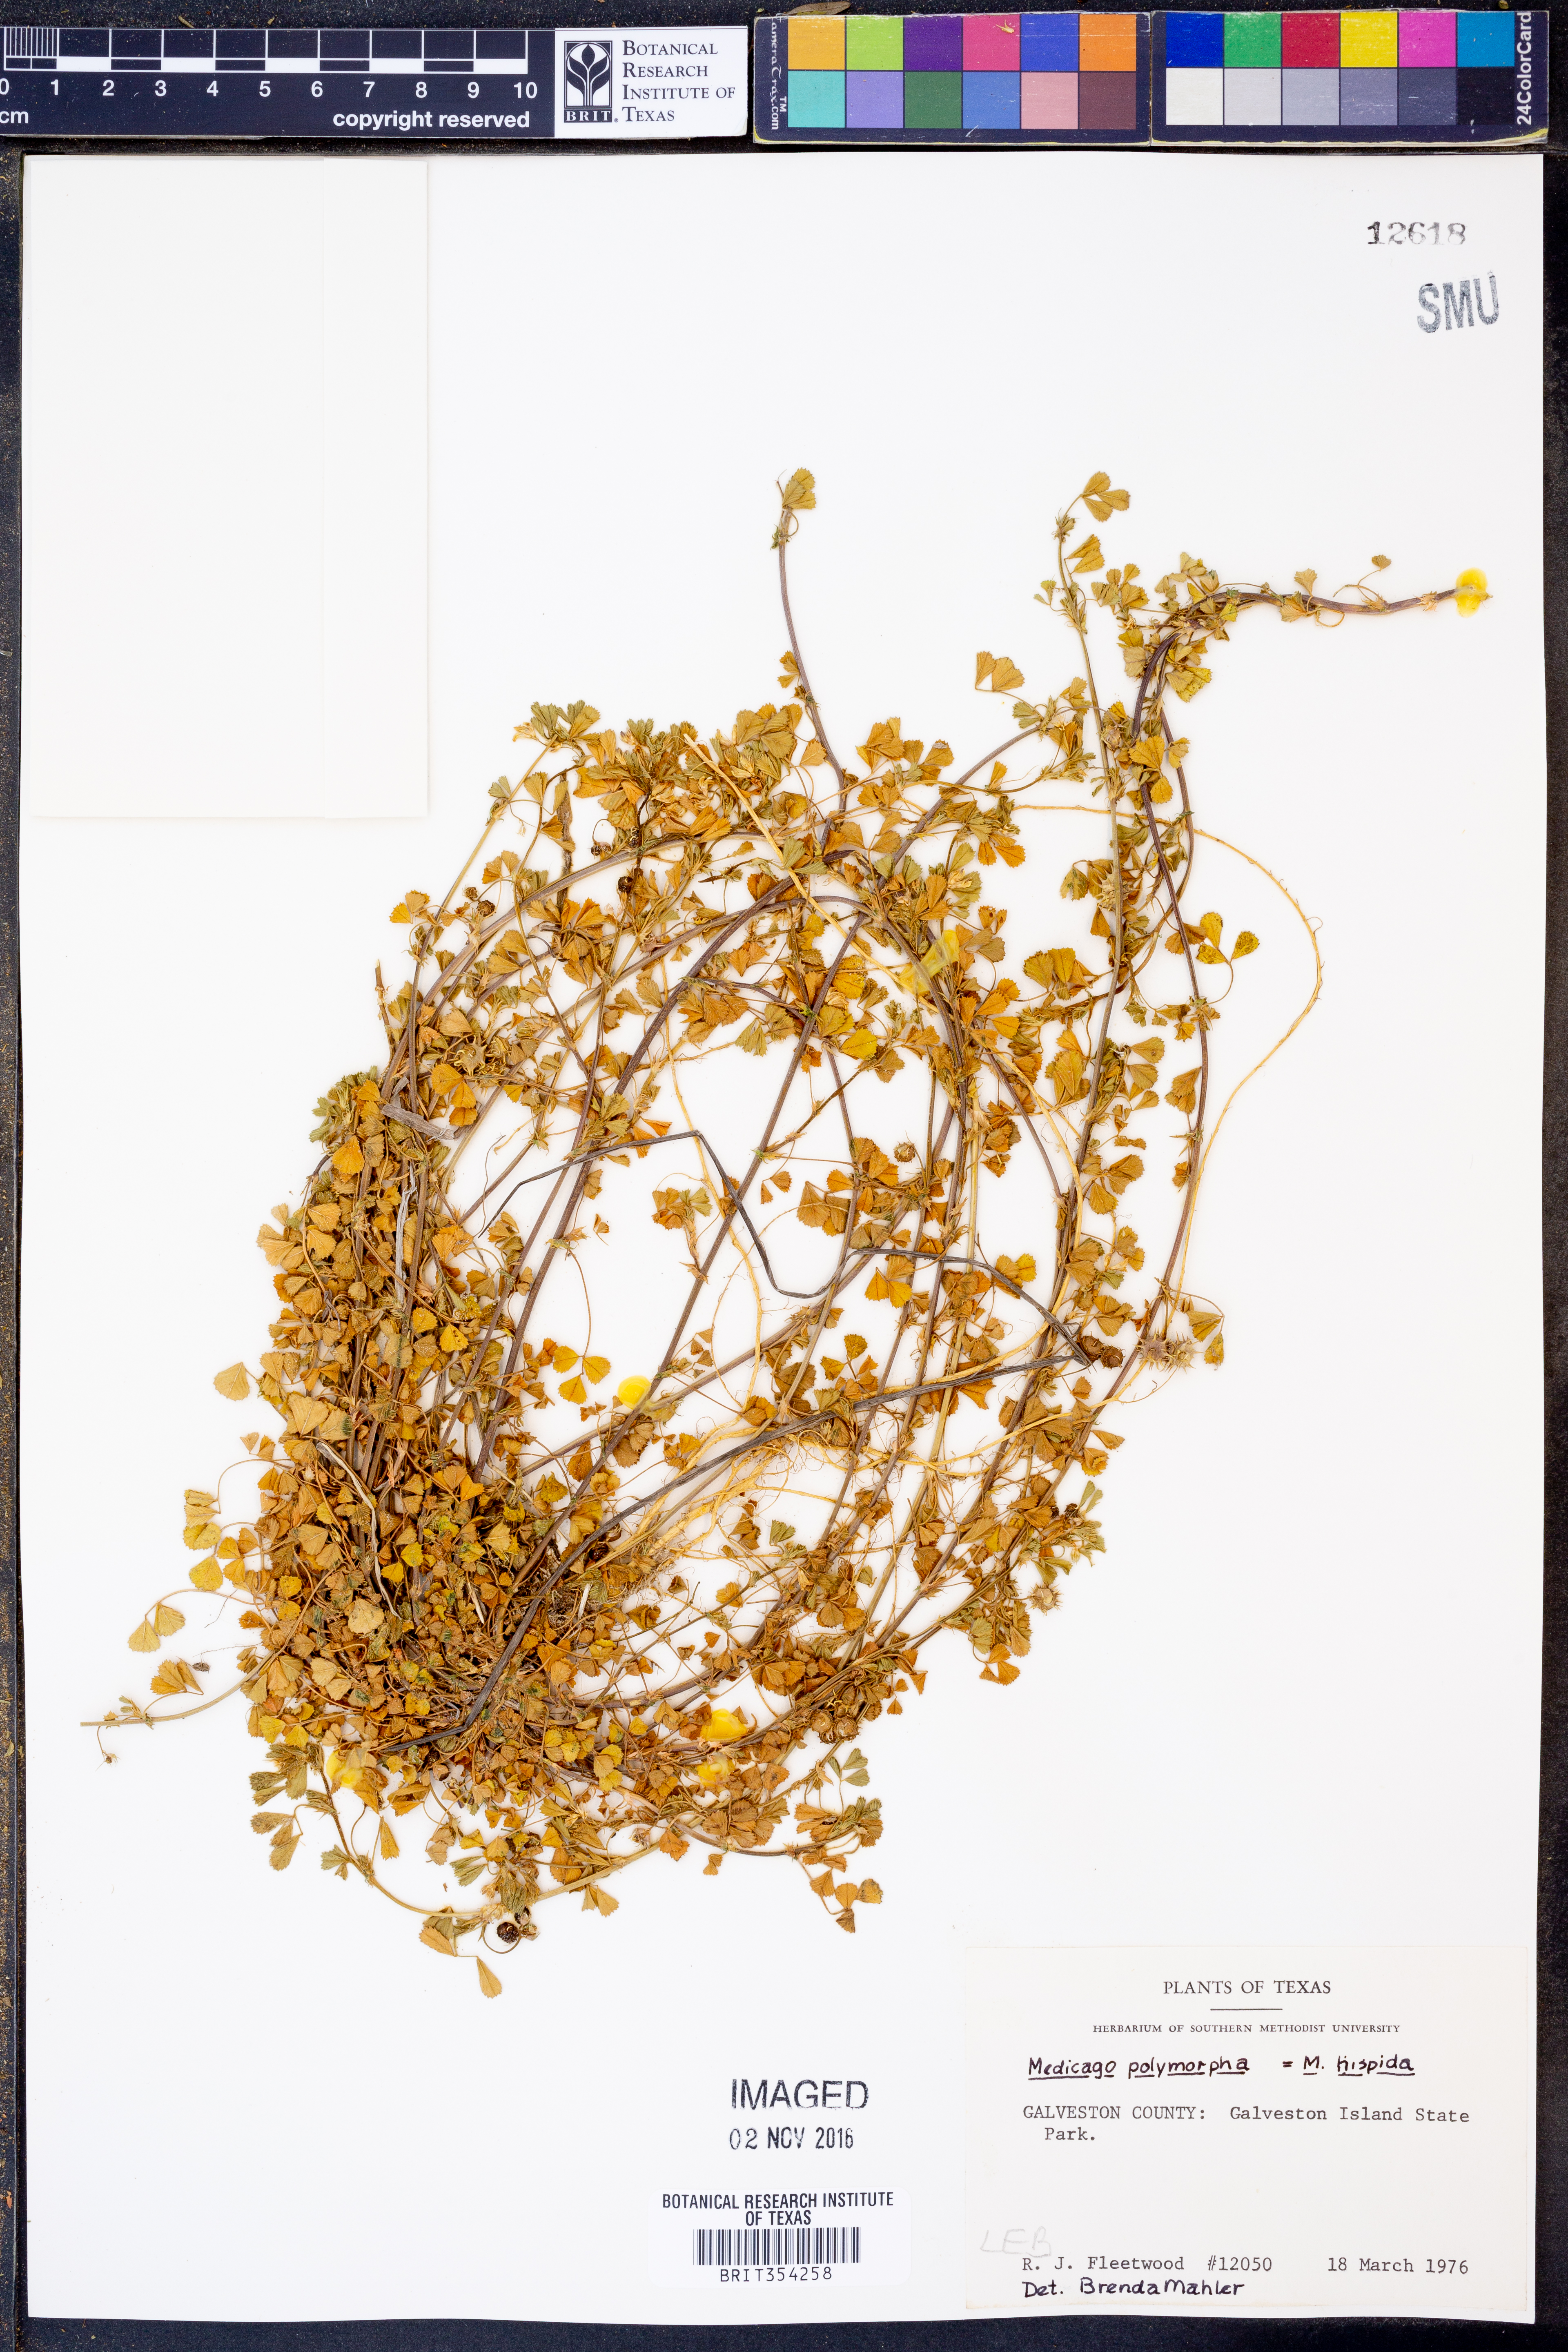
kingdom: Plantae
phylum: Tracheophyta
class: Magnoliopsida
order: Fabales
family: Fabaceae
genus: Medicago
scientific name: Medicago polymorpha
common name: Burclover
